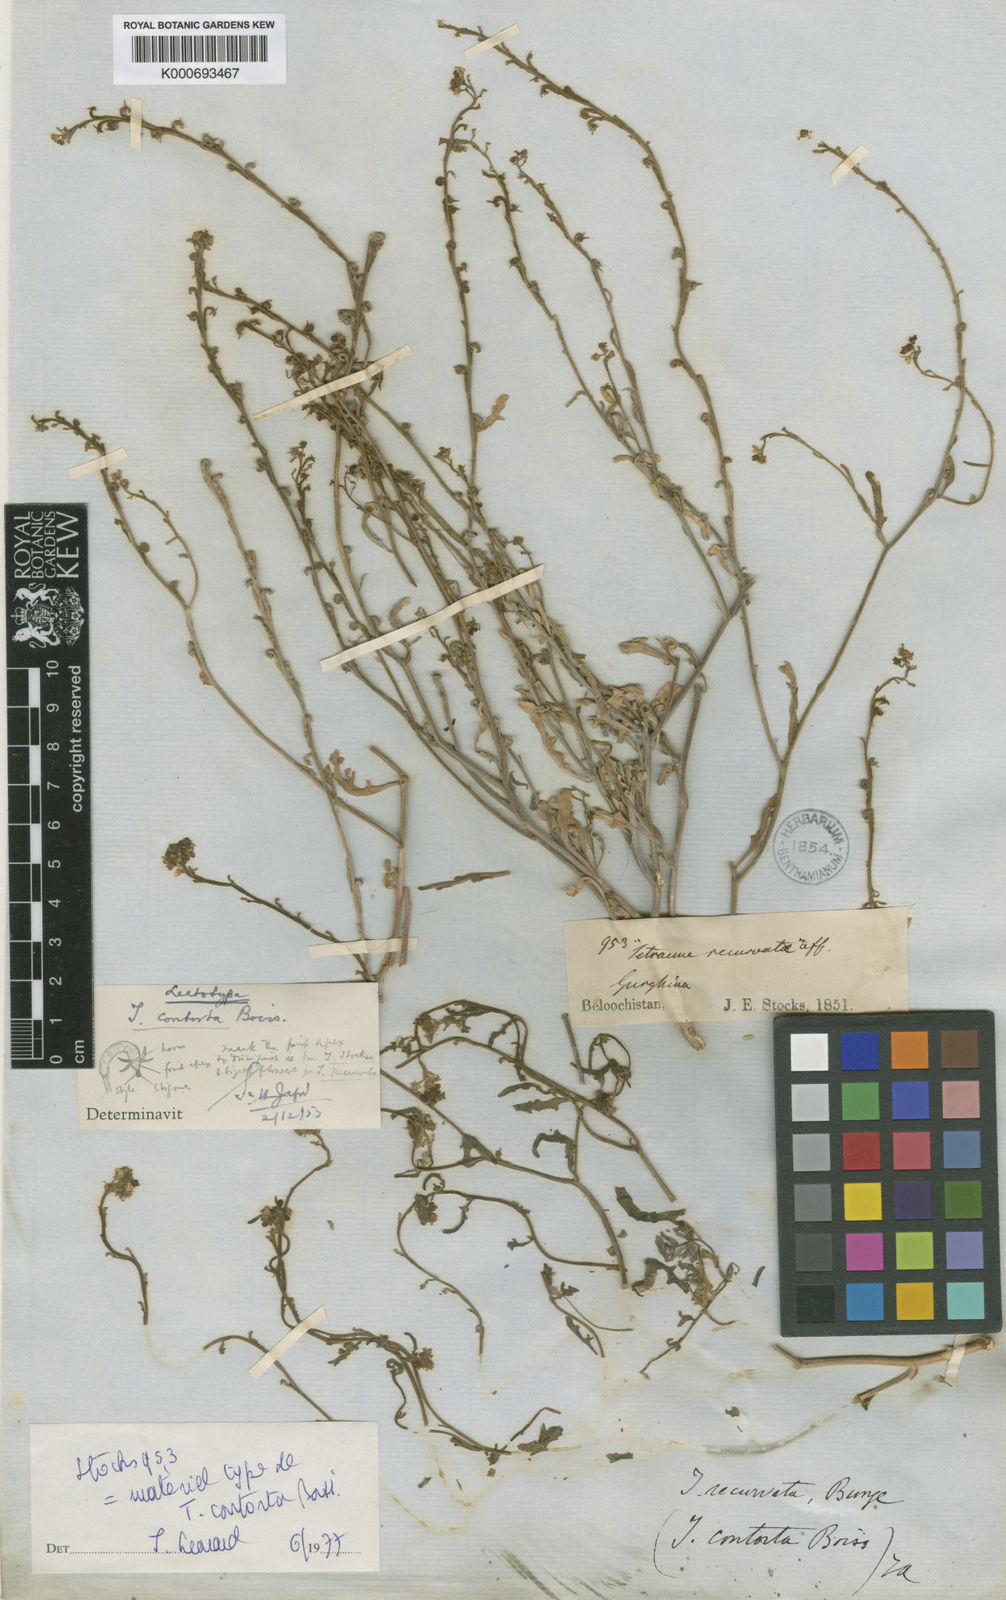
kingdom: Plantae
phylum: Tracheophyta
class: Magnoliopsida
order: Brassicales
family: Brassicaceae
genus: Tetracme
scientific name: Tetracme contorta
